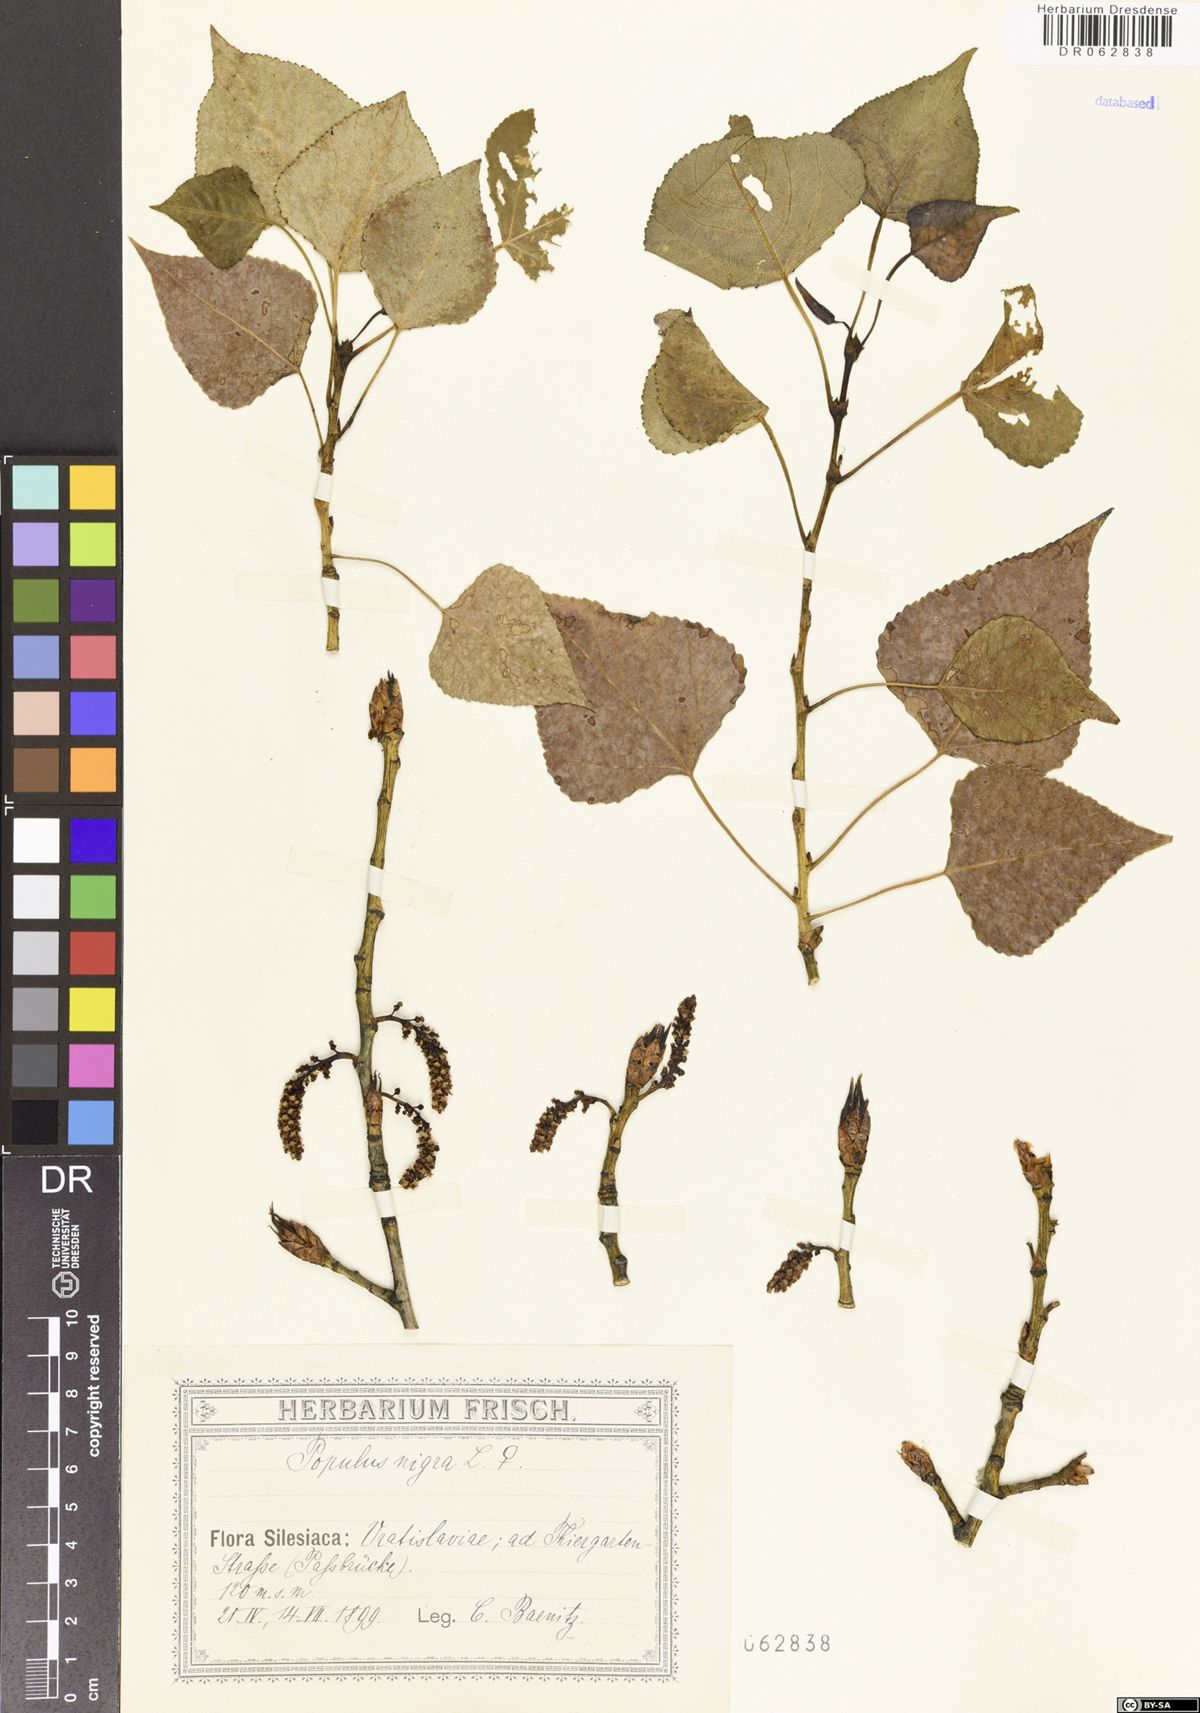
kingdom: Plantae
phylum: Tracheophyta
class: Magnoliopsida
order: Malpighiales
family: Salicaceae
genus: Populus
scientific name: Populus nigra
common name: Black poplar
